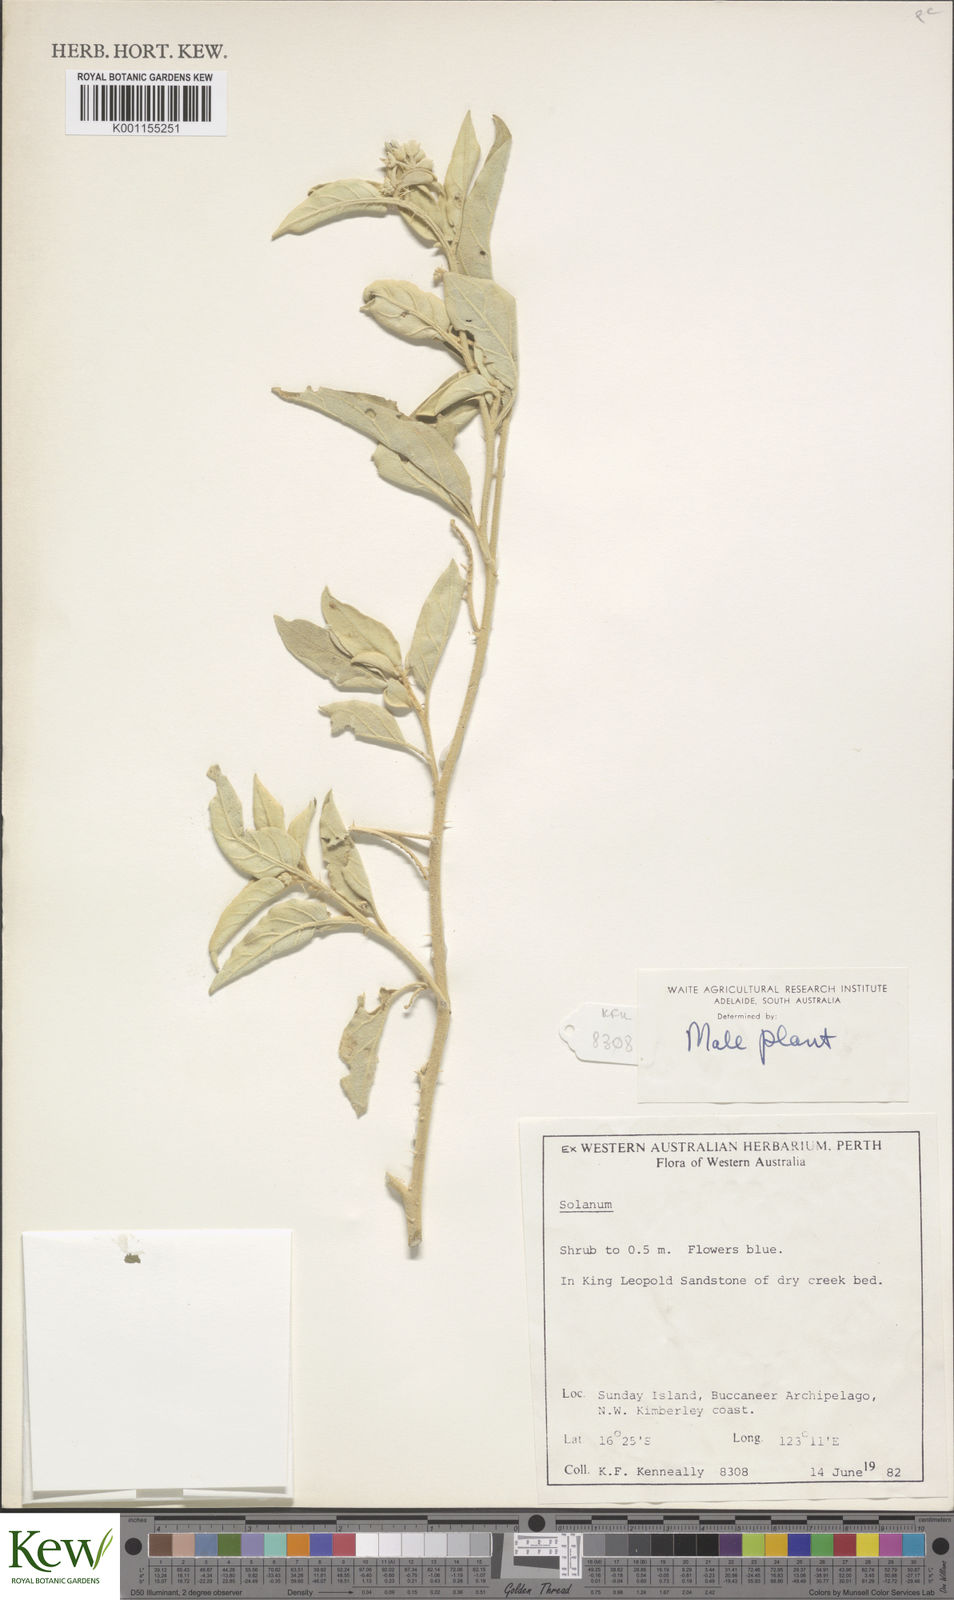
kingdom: Plantae
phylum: Tracheophyta
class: Magnoliopsida
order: Solanales
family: Solanaceae
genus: Solanum
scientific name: Solanum
